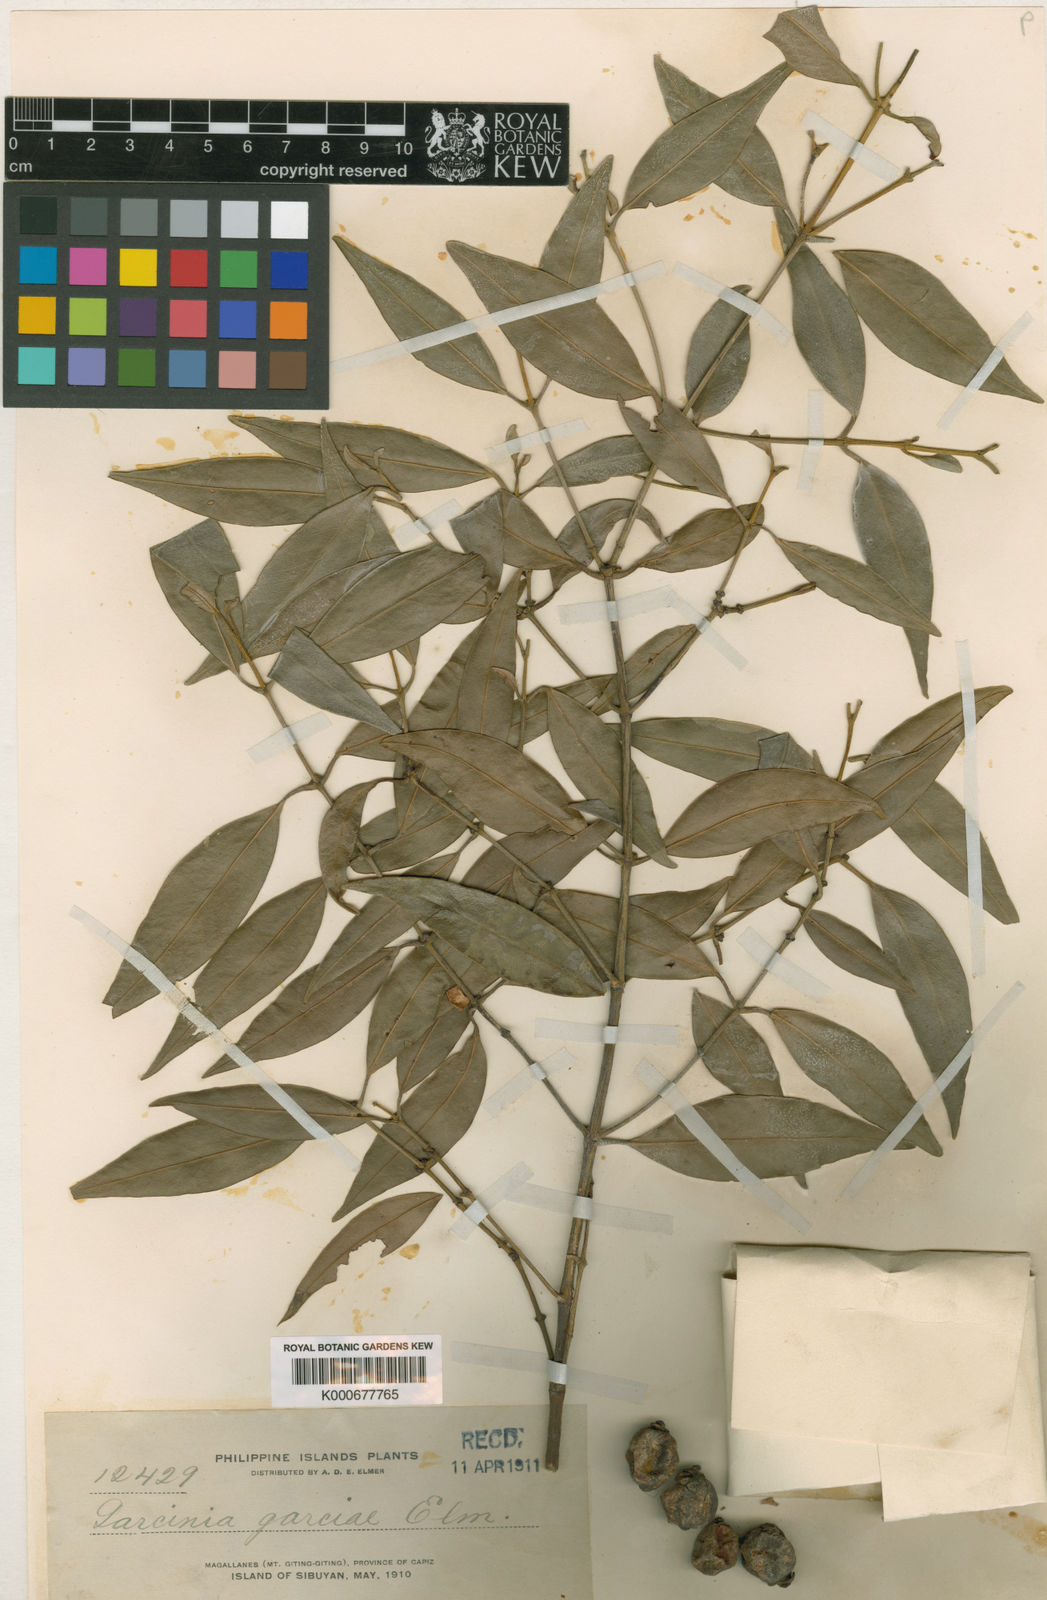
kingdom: Plantae
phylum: Tracheophyta
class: Magnoliopsida
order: Malpighiales
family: Clusiaceae
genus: Garcinia
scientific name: Garcinia garciae
